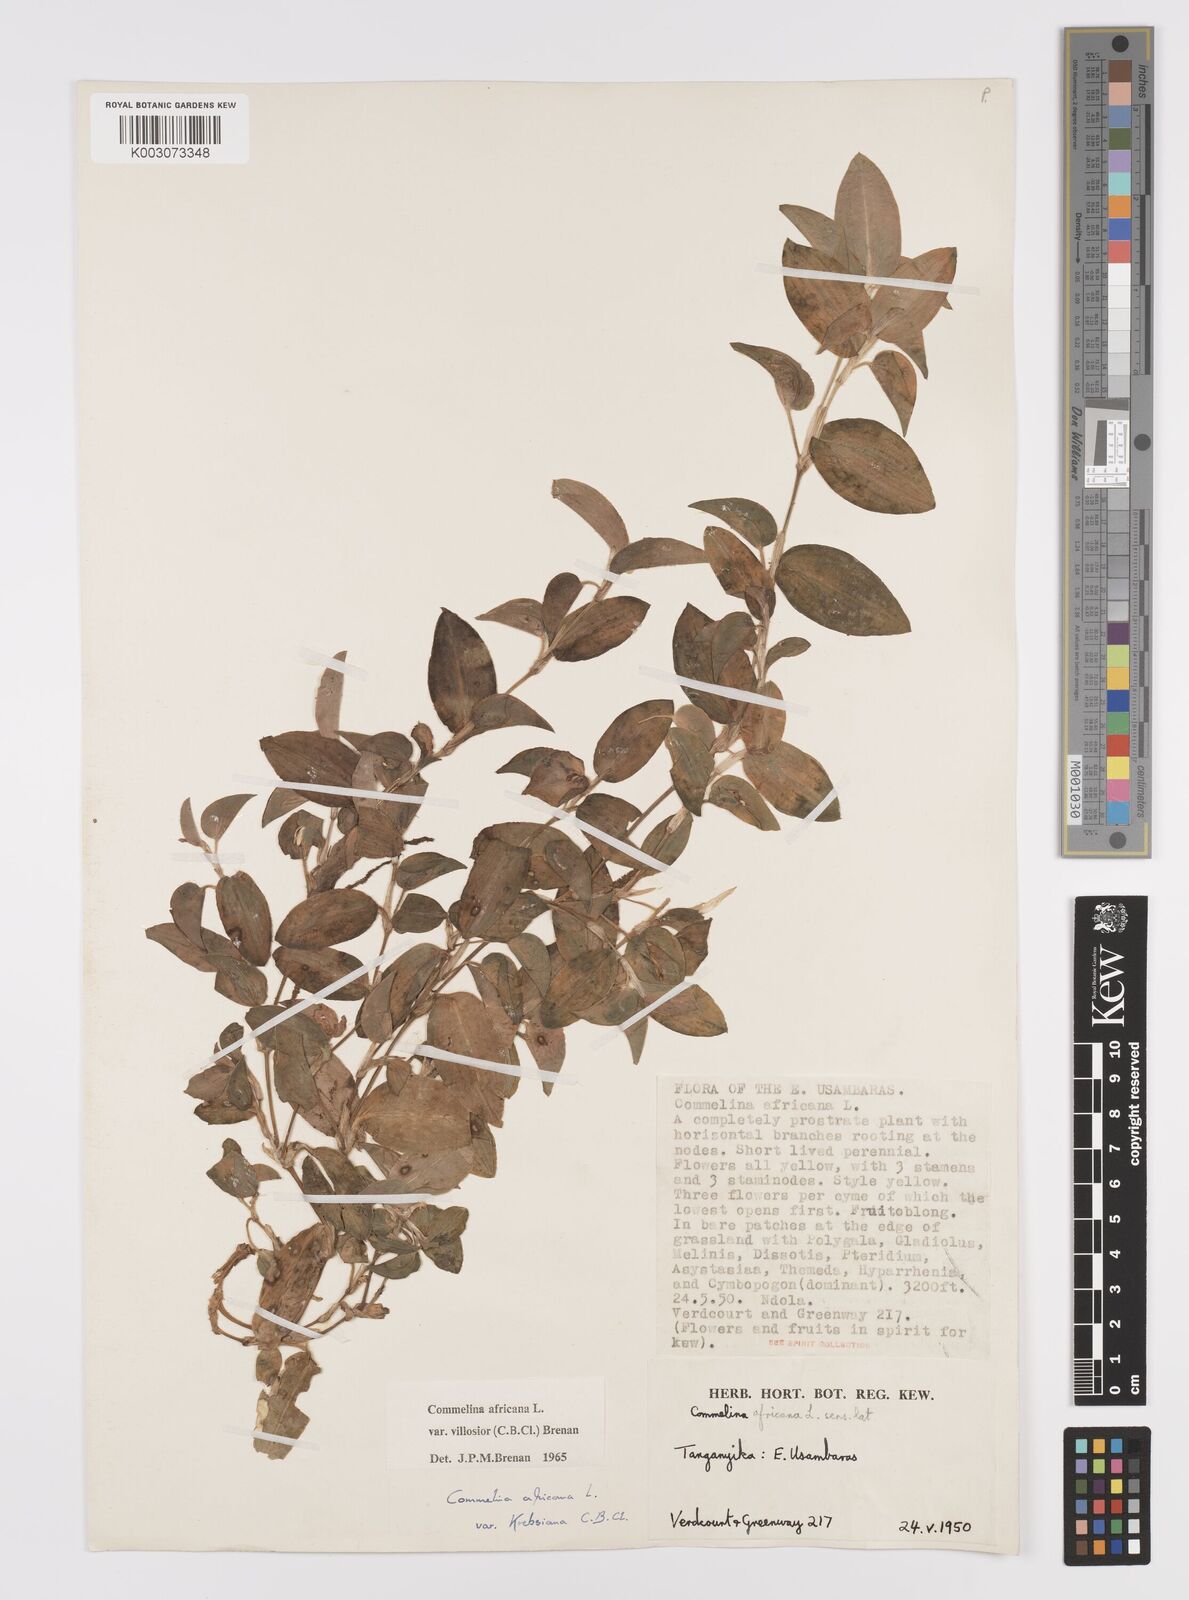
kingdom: Plantae
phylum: Tracheophyta
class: Liliopsida
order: Commelinales
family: Commelinaceae
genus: Commelina
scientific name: Commelina africana
